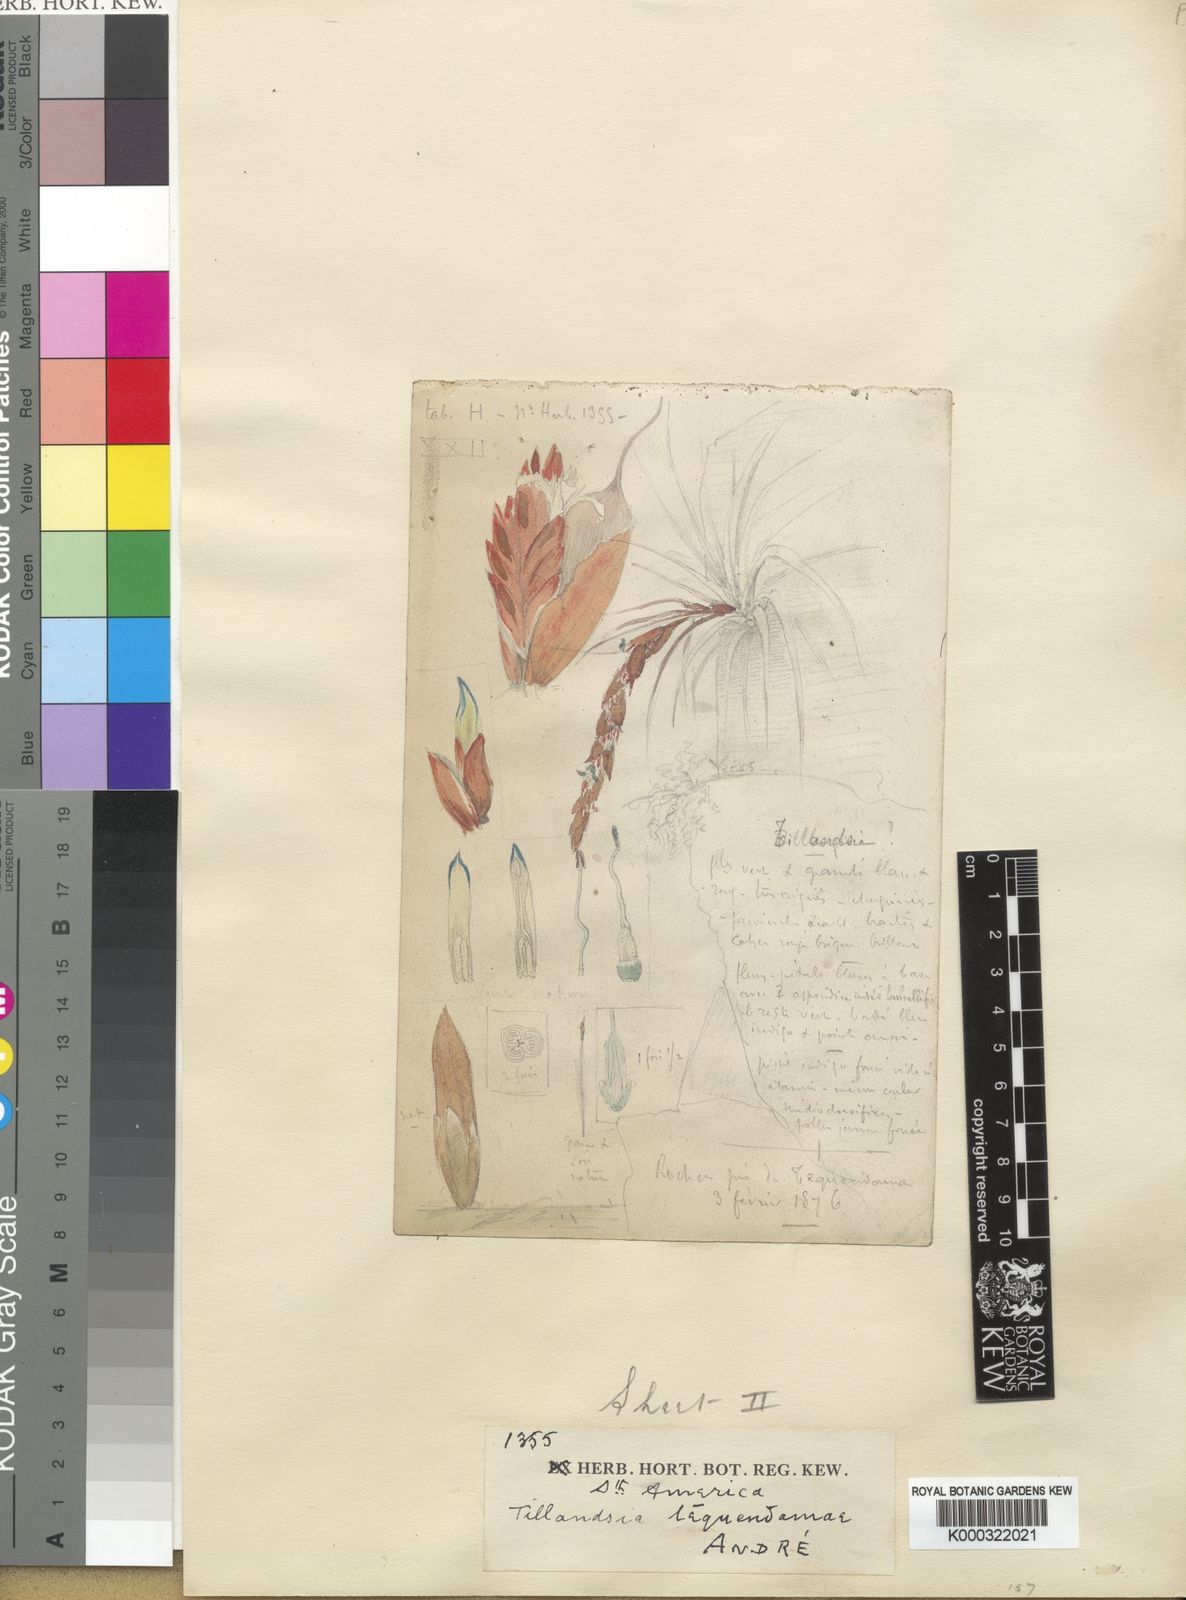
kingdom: Plantae
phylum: Tracheophyta
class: Liliopsida
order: Poales
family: Bromeliaceae
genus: Vriesea
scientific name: Vriesea
